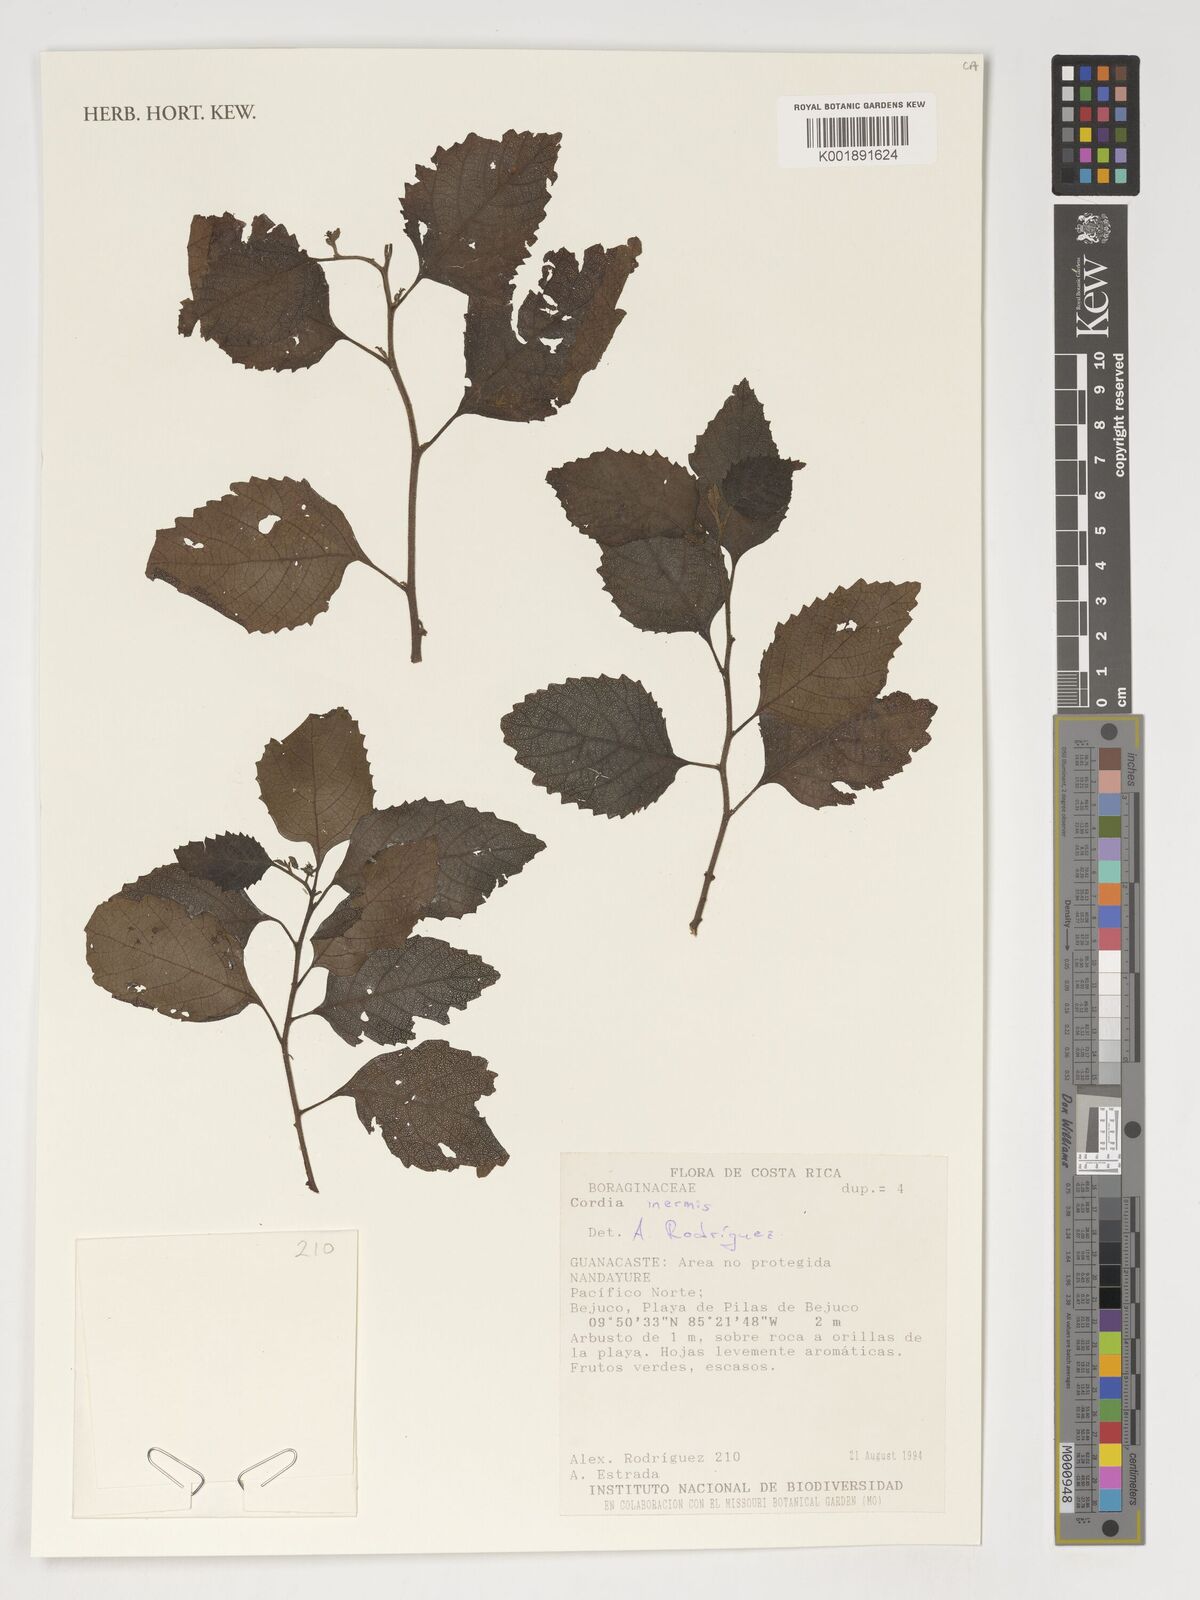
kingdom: Plantae
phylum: Tracheophyta
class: Magnoliopsida
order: Boraginales
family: Cordiaceae
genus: Varronia
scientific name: Varronia inermis
